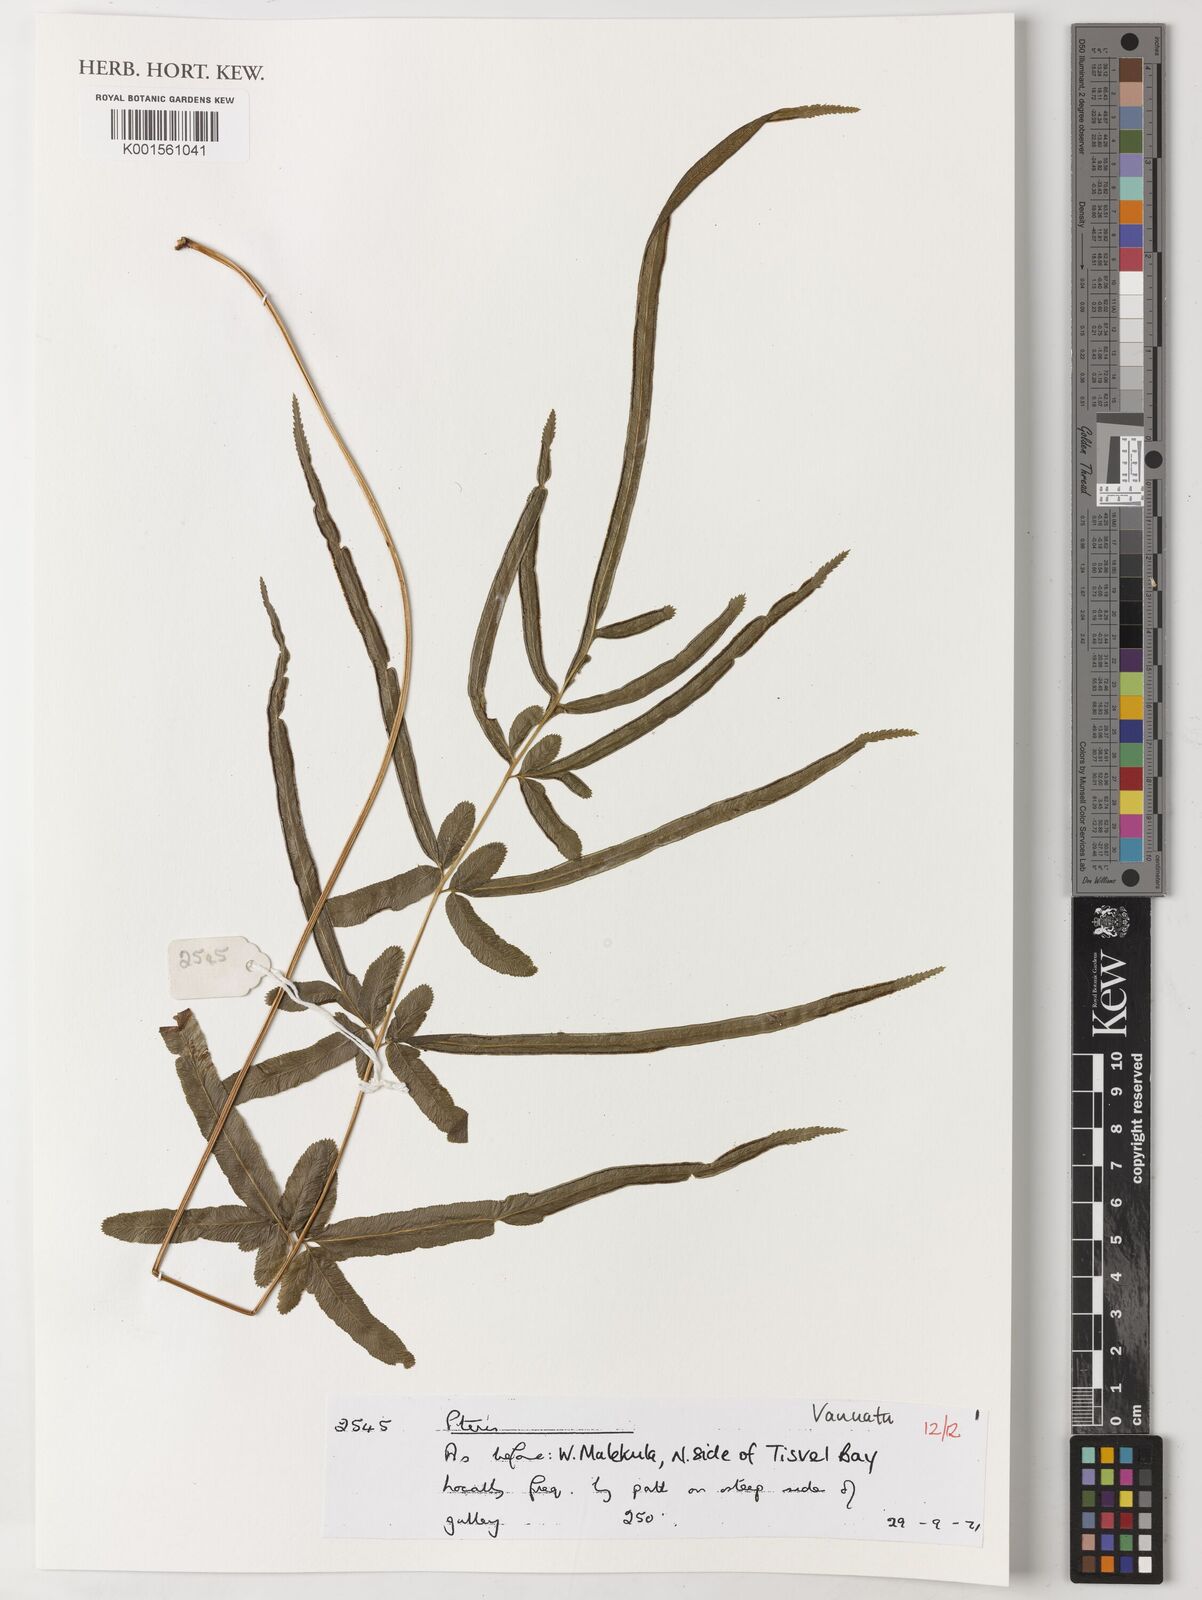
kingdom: Plantae
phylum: Tracheophyta
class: Polypodiopsida
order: Polypodiales
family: Pteridaceae
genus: Pteris
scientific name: Pteris
